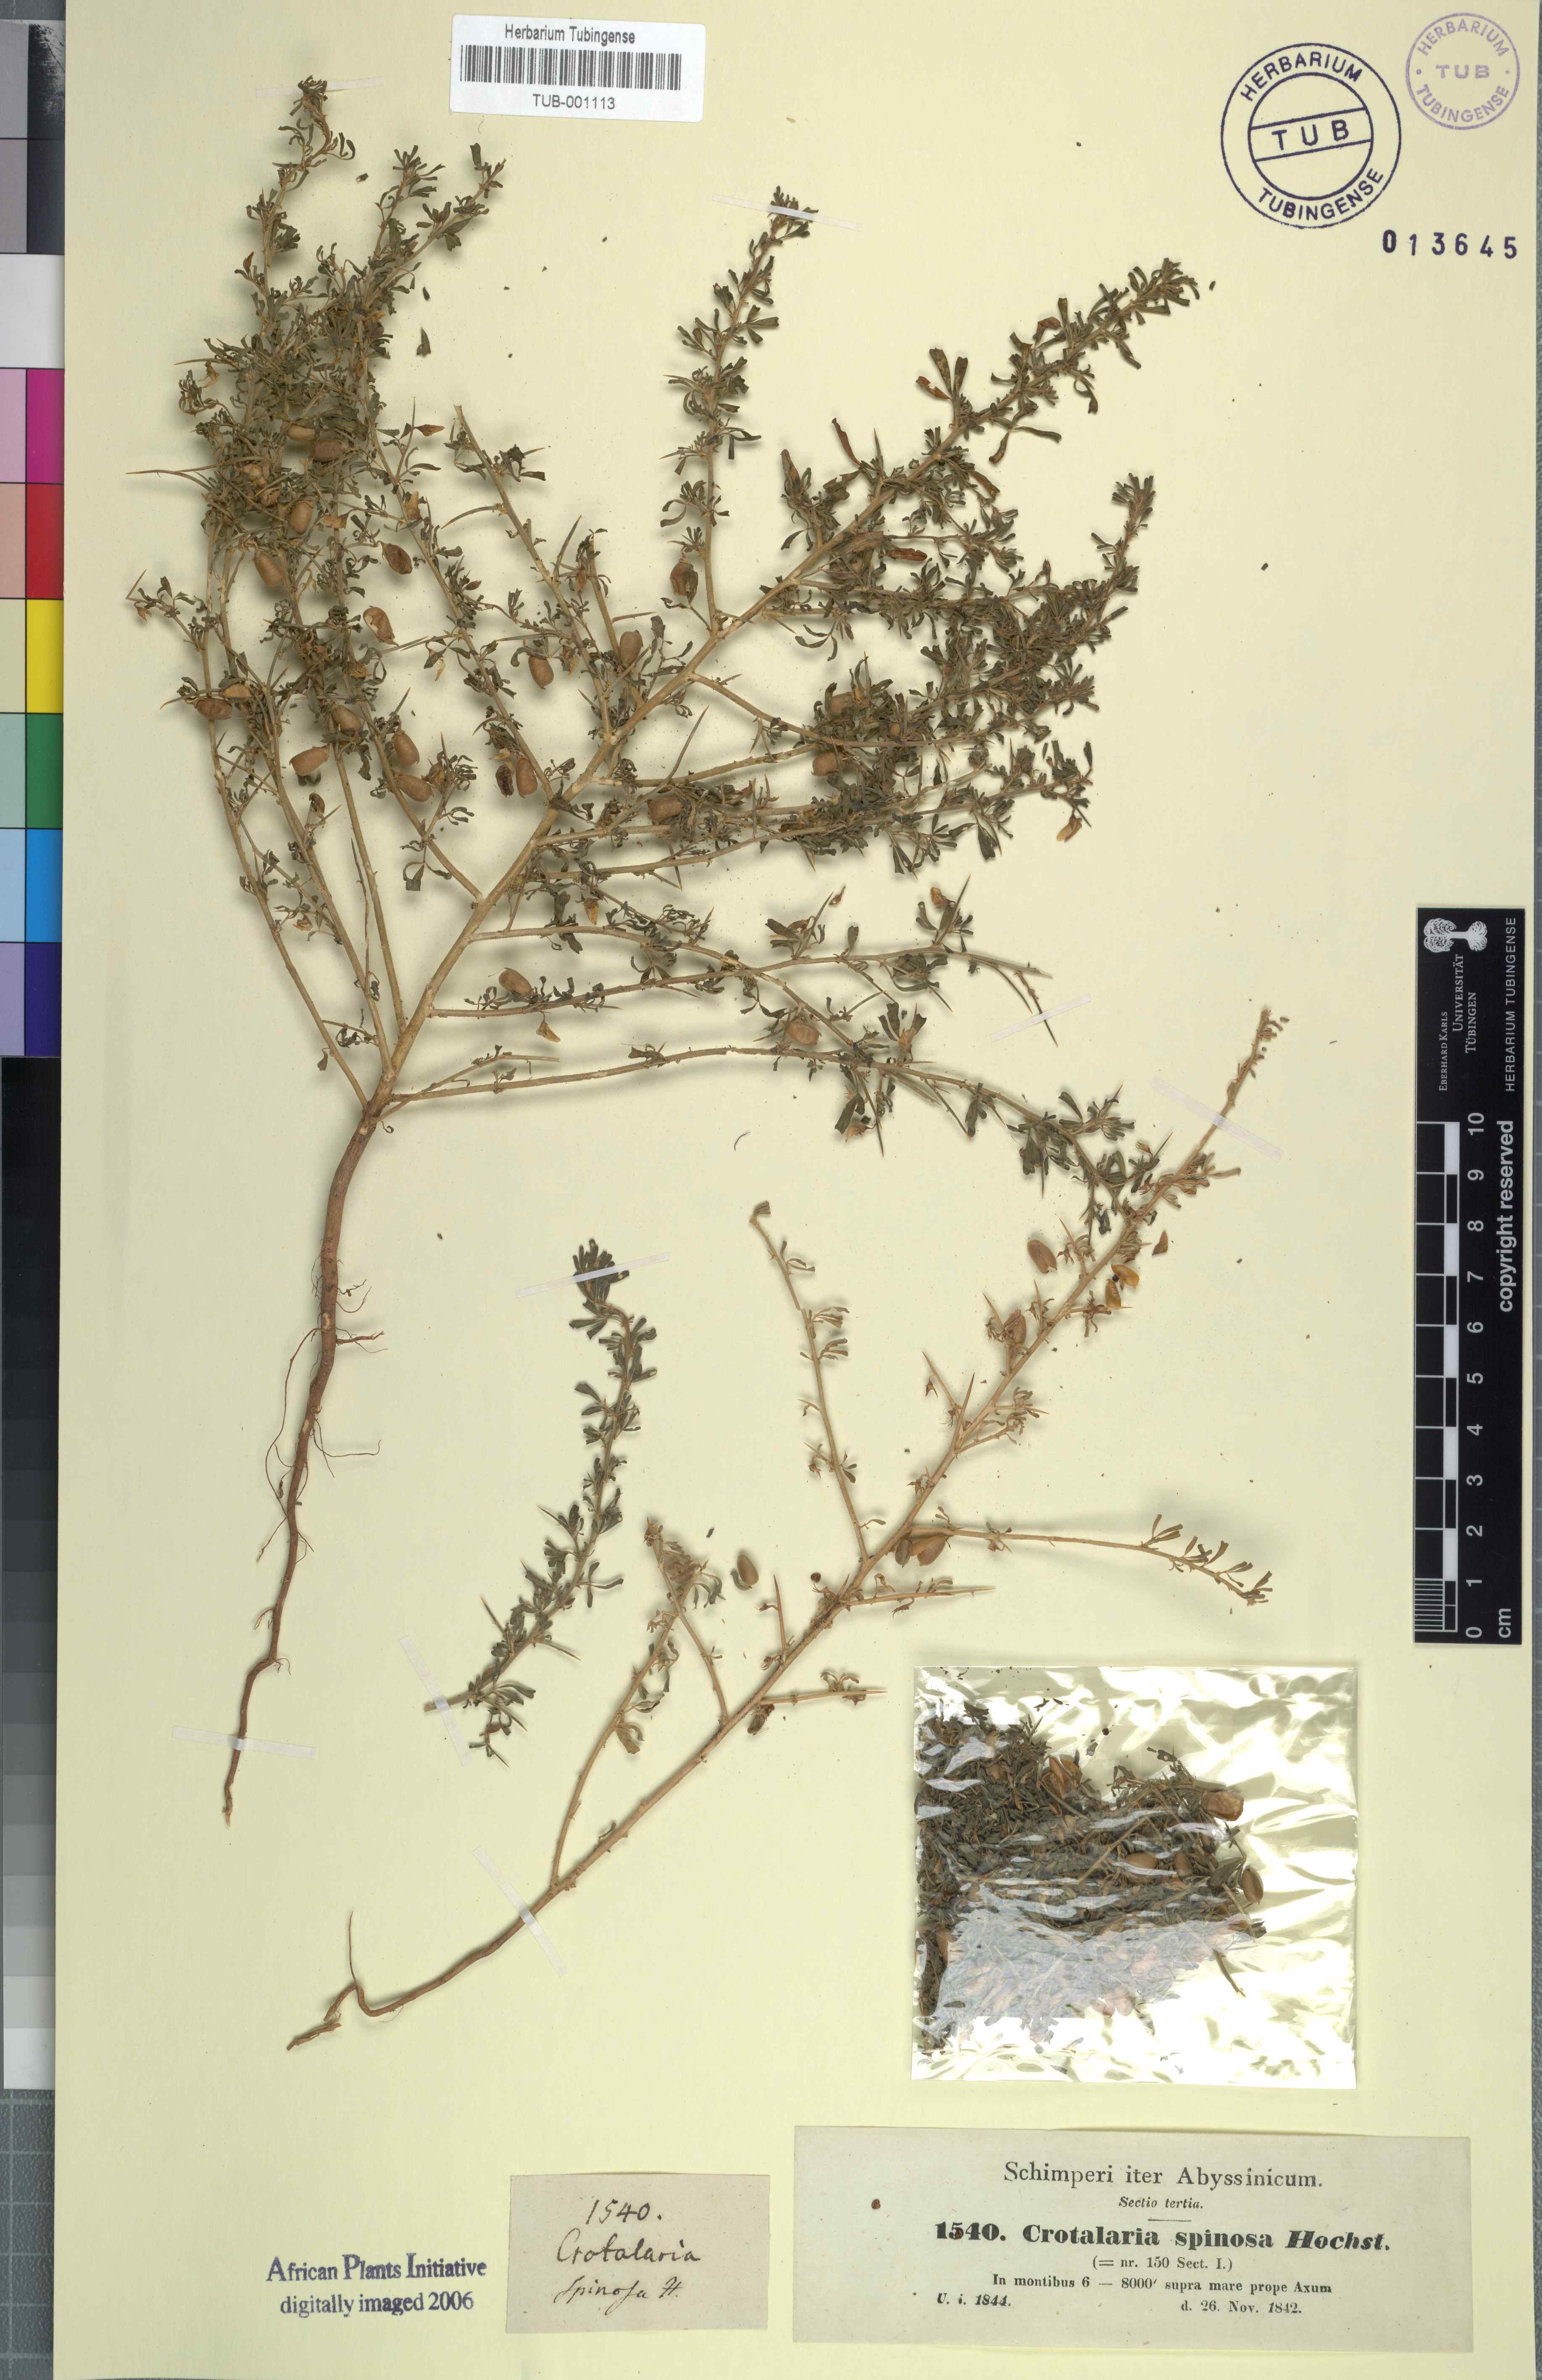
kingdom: Plantae
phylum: Tracheophyta
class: Magnoliopsida
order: Fabales
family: Fabaceae
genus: Crotalaria
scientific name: Crotalaria spinosa
